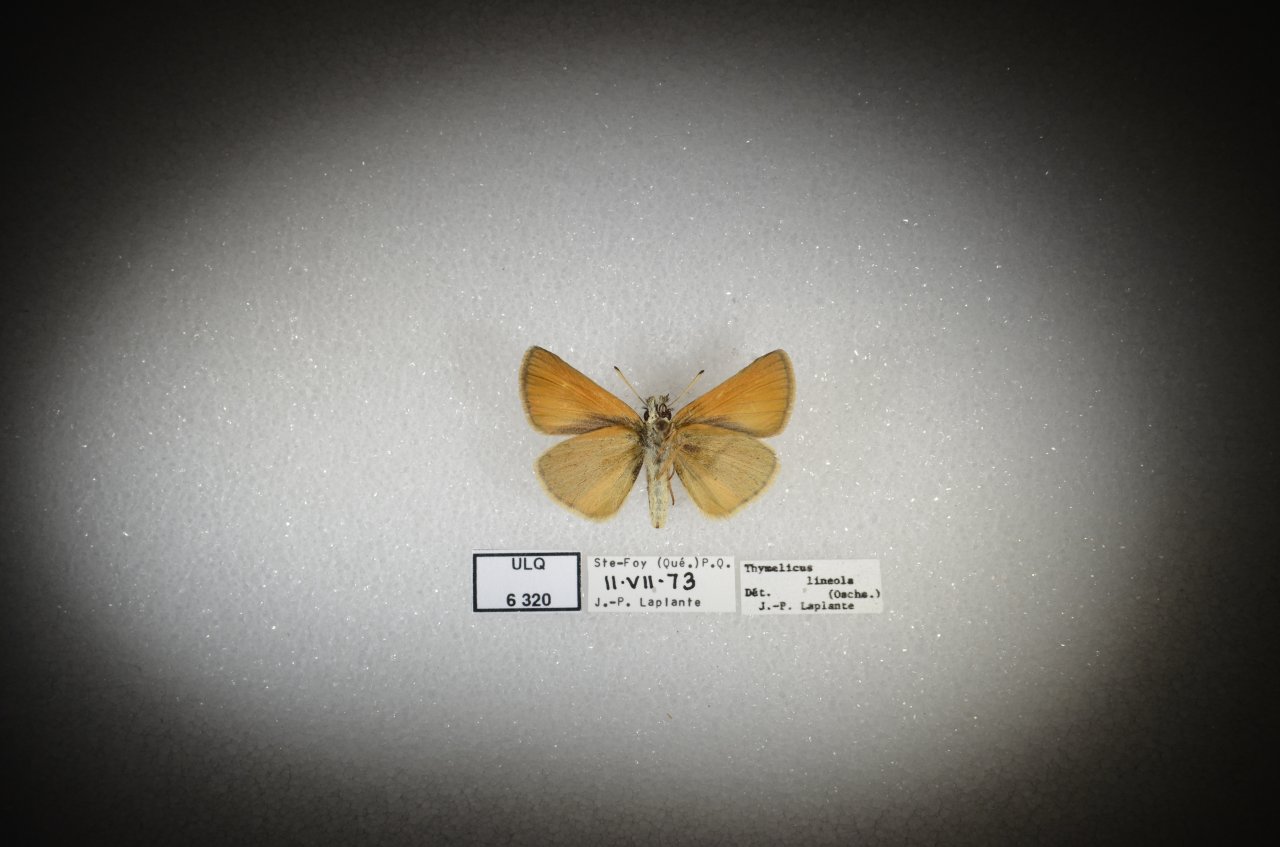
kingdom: Animalia
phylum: Arthropoda
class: Insecta
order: Lepidoptera
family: Hesperiidae
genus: Thymelicus
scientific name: Thymelicus lineola
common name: European Skipper
